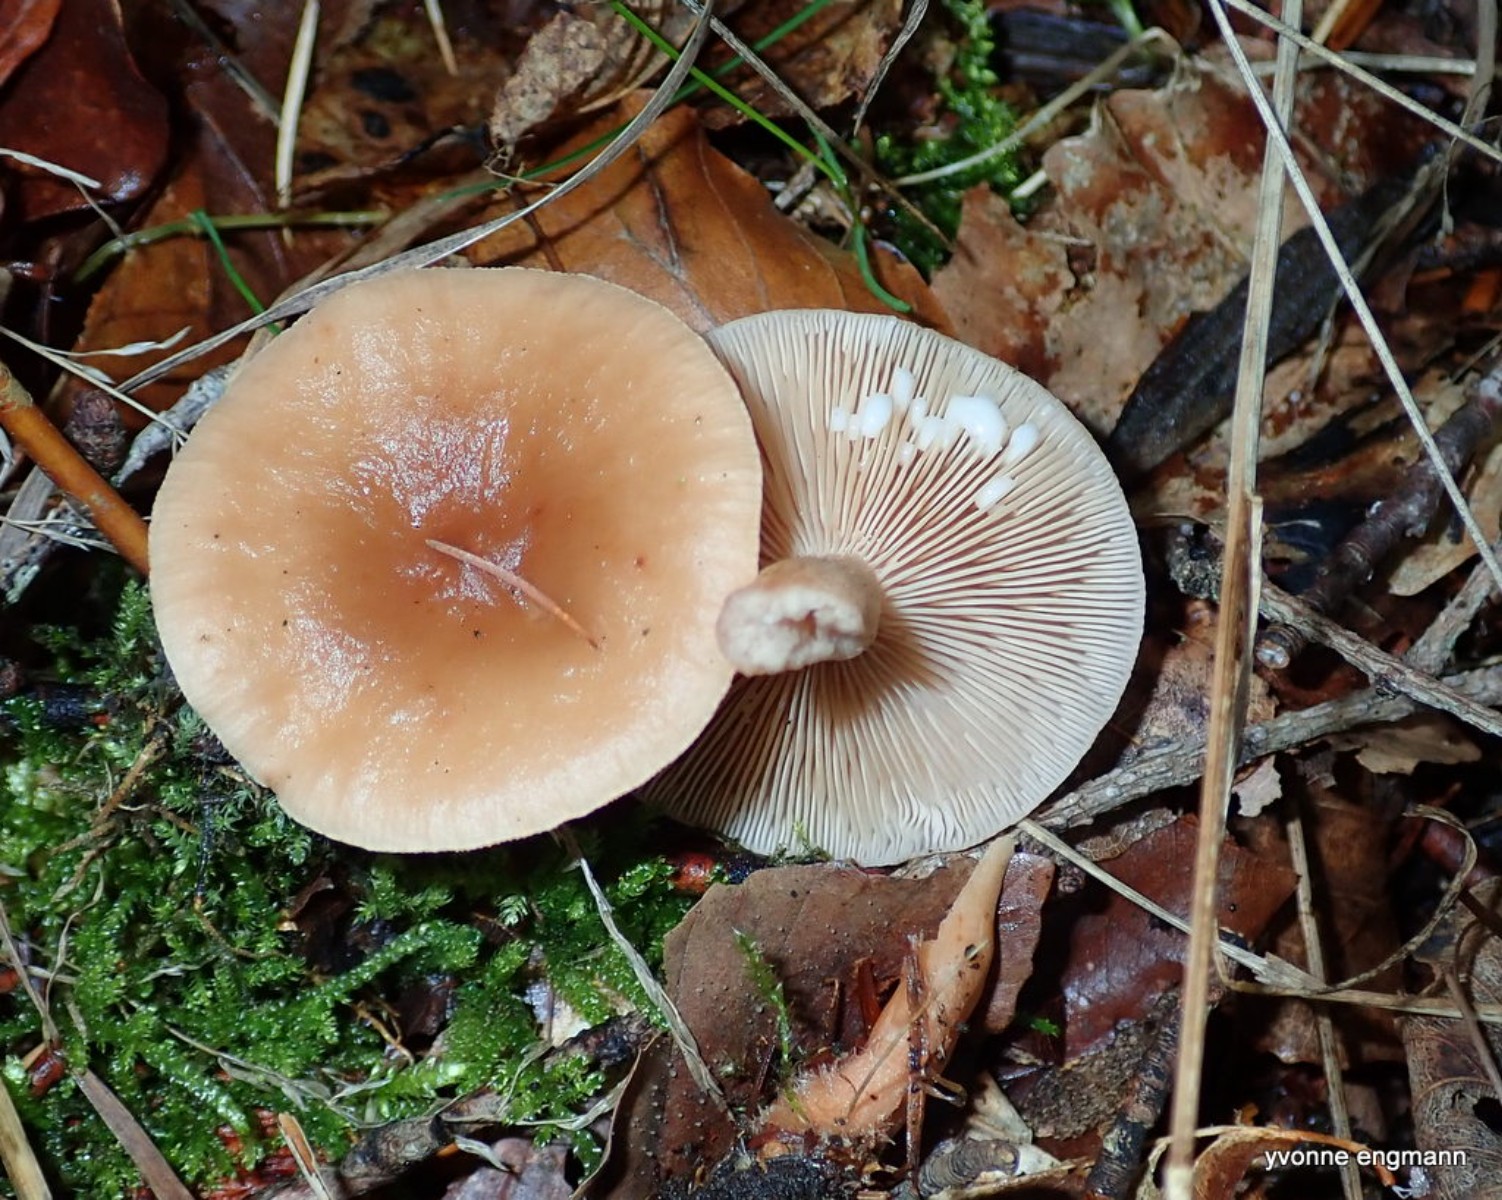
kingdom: Fungi
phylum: Basidiomycota
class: Agaricomycetes
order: Russulales
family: Russulaceae
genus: Lactarius
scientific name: Lactarius tabidus
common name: rynket mælkehat
